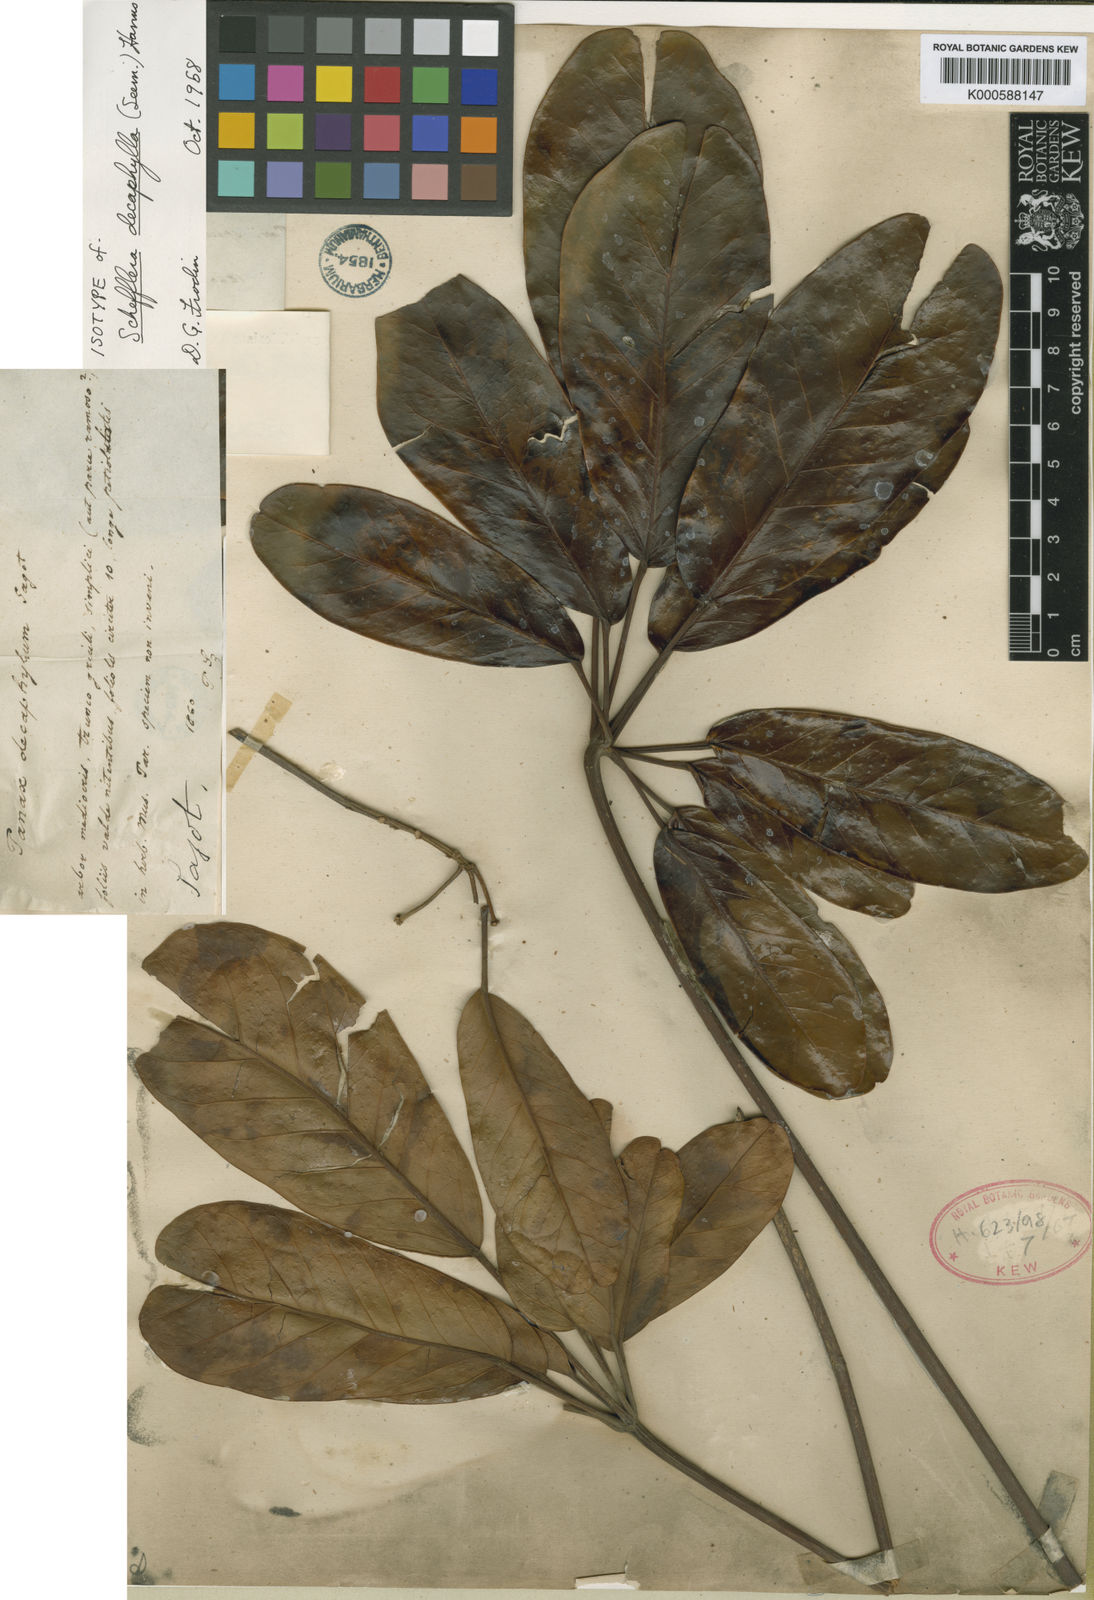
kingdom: Plantae
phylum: Tracheophyta
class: Magnoliopsida
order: Apiales
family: Araliaceae
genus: Didymopanax
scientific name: Didymopanax decaphyllus
